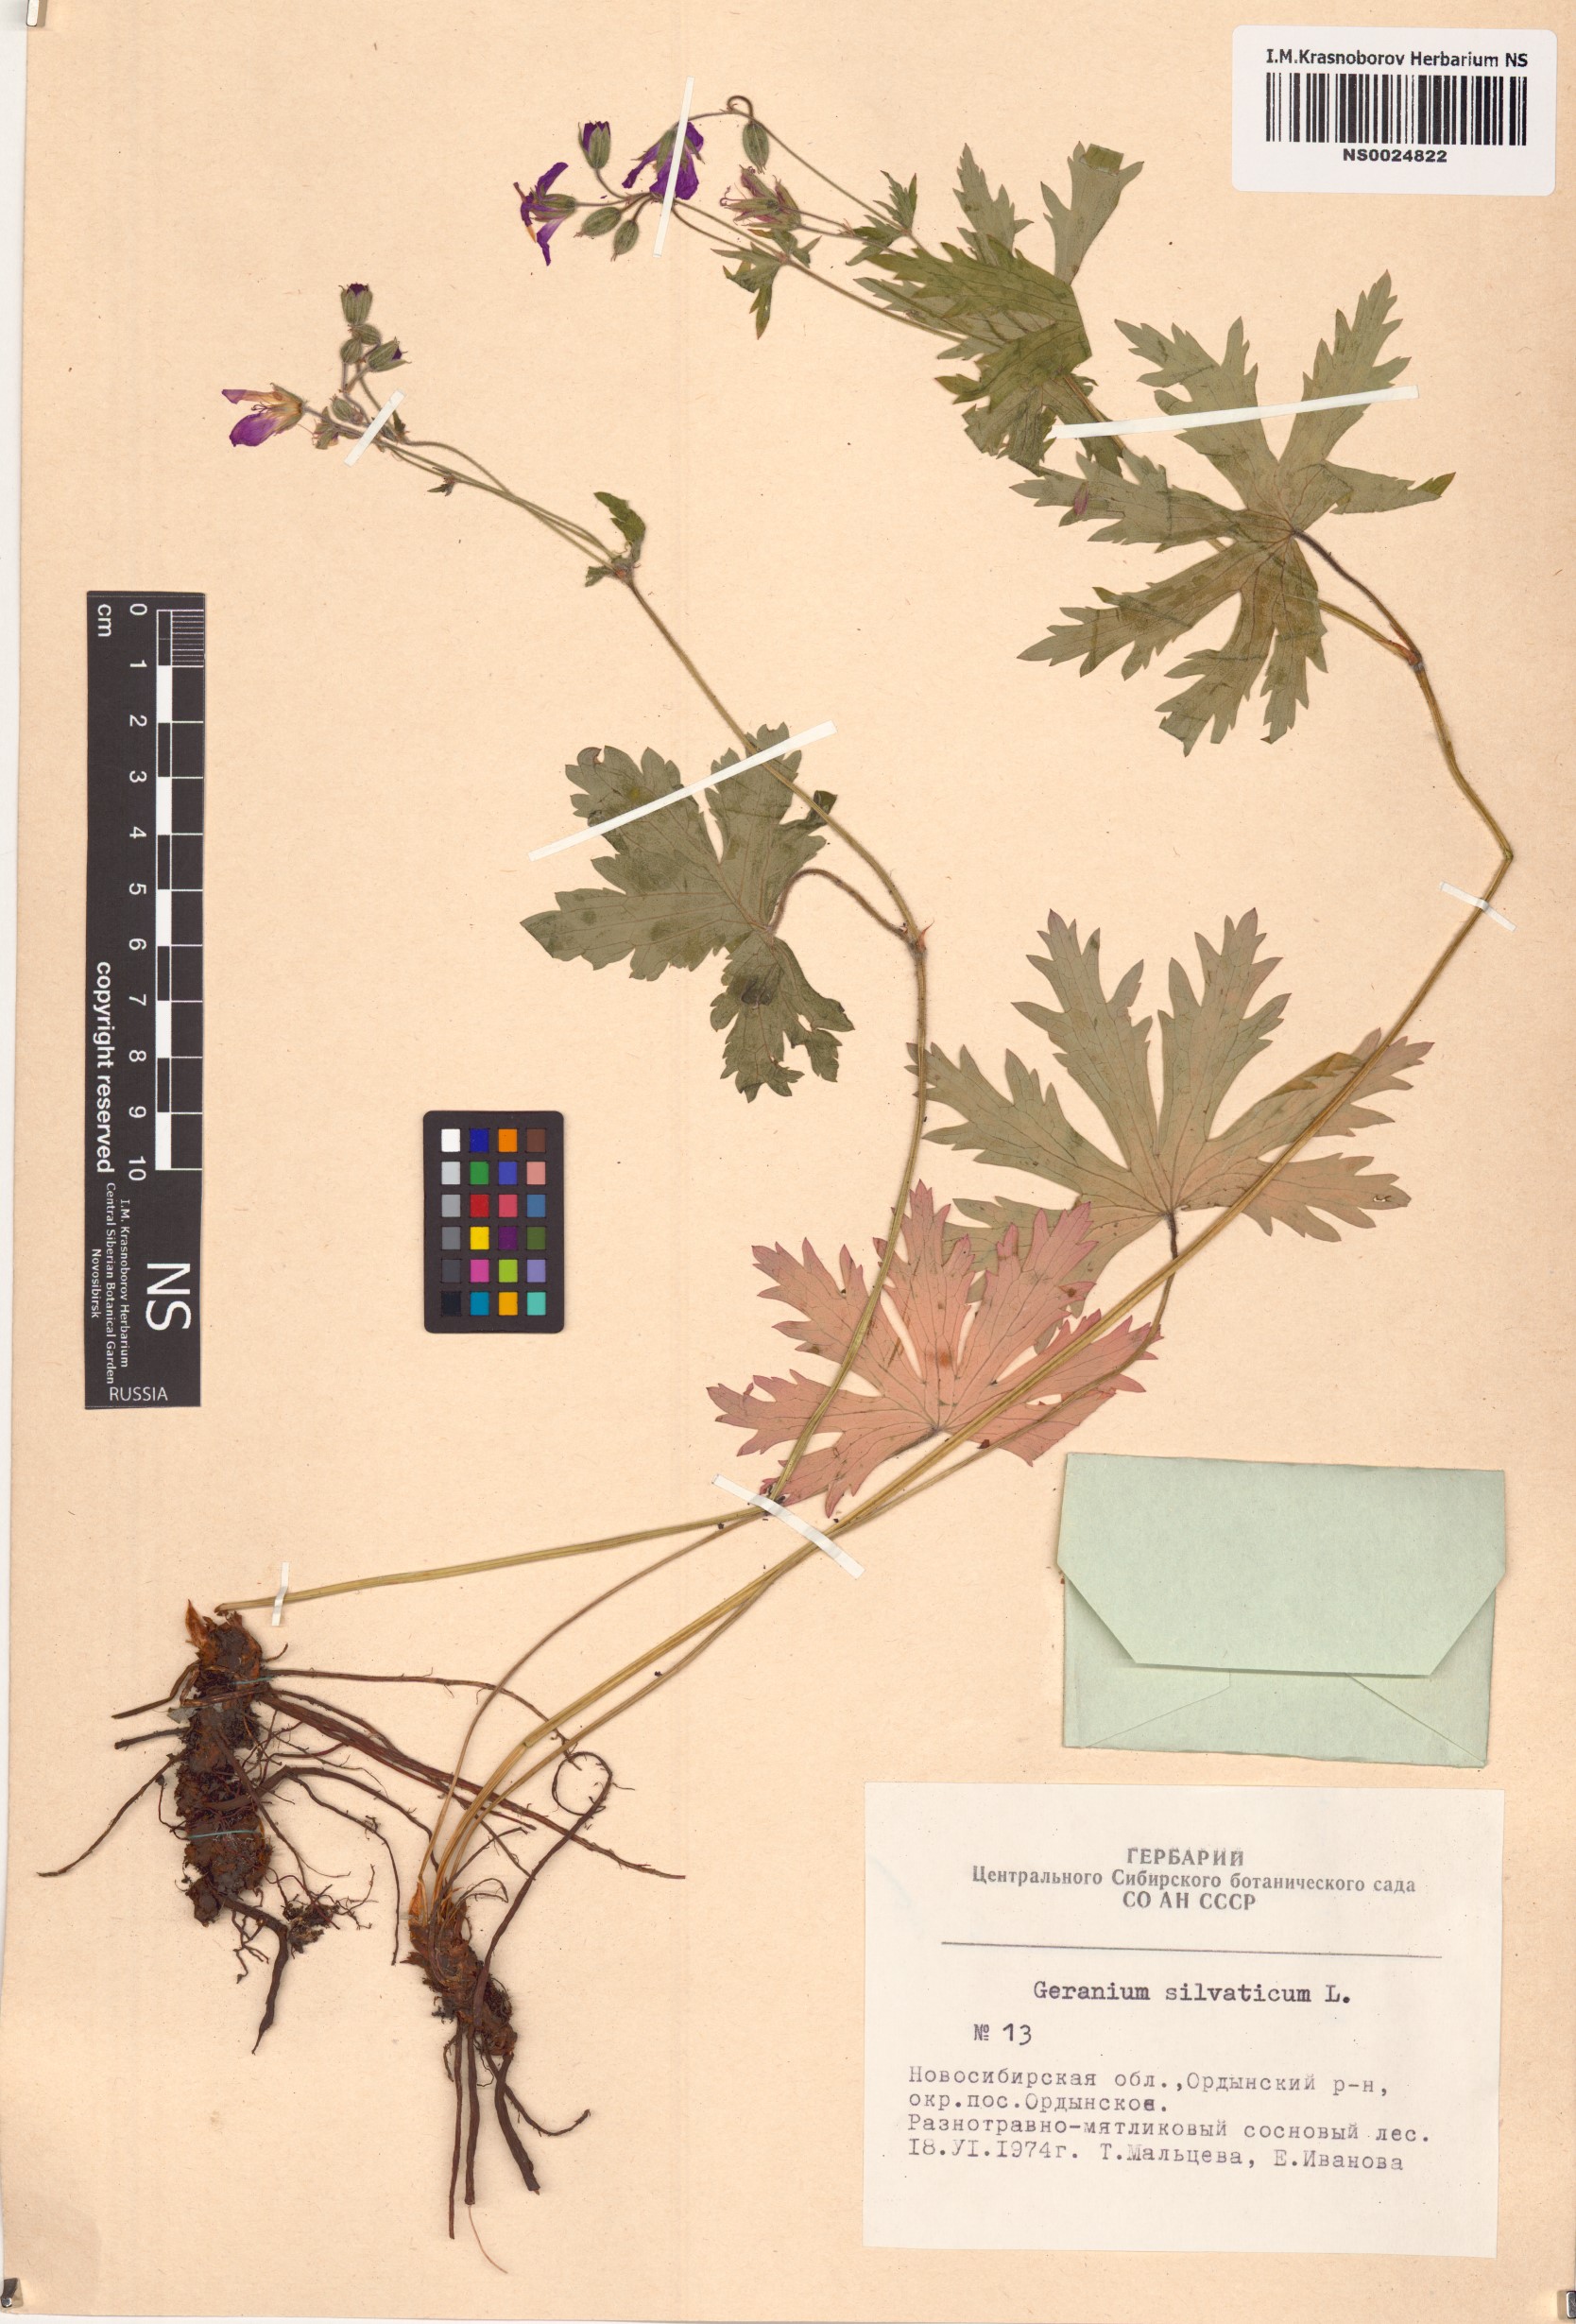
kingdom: Plantae
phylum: Tracheophyta
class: Magnoliopsida
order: Geraniales
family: Geraniaceae
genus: Geranium
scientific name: Geranium sylvaticum
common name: Wood crane's-bill
